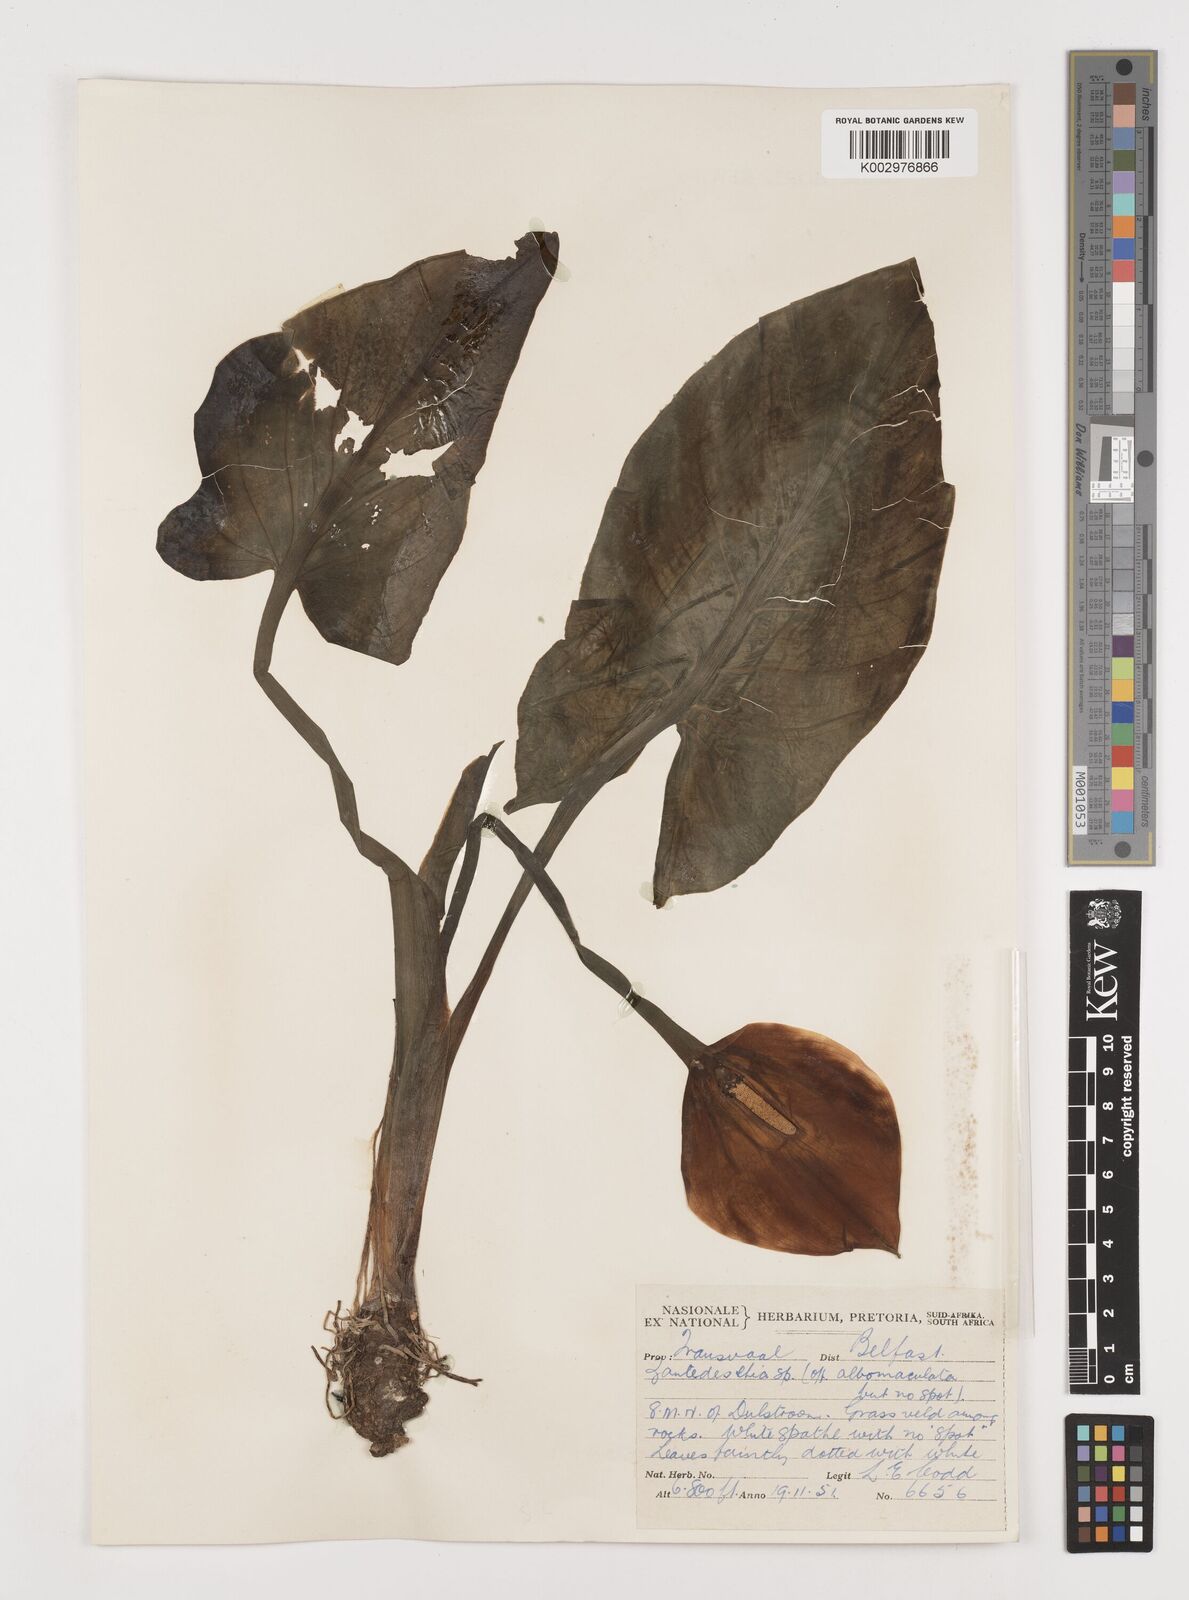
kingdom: Plantae
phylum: Tracheophyta
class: Liliopsida
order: Alismatales
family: Araceae
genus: Zantedeschia
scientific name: Zantedeschia albomaculata
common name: Spotted calla lily
